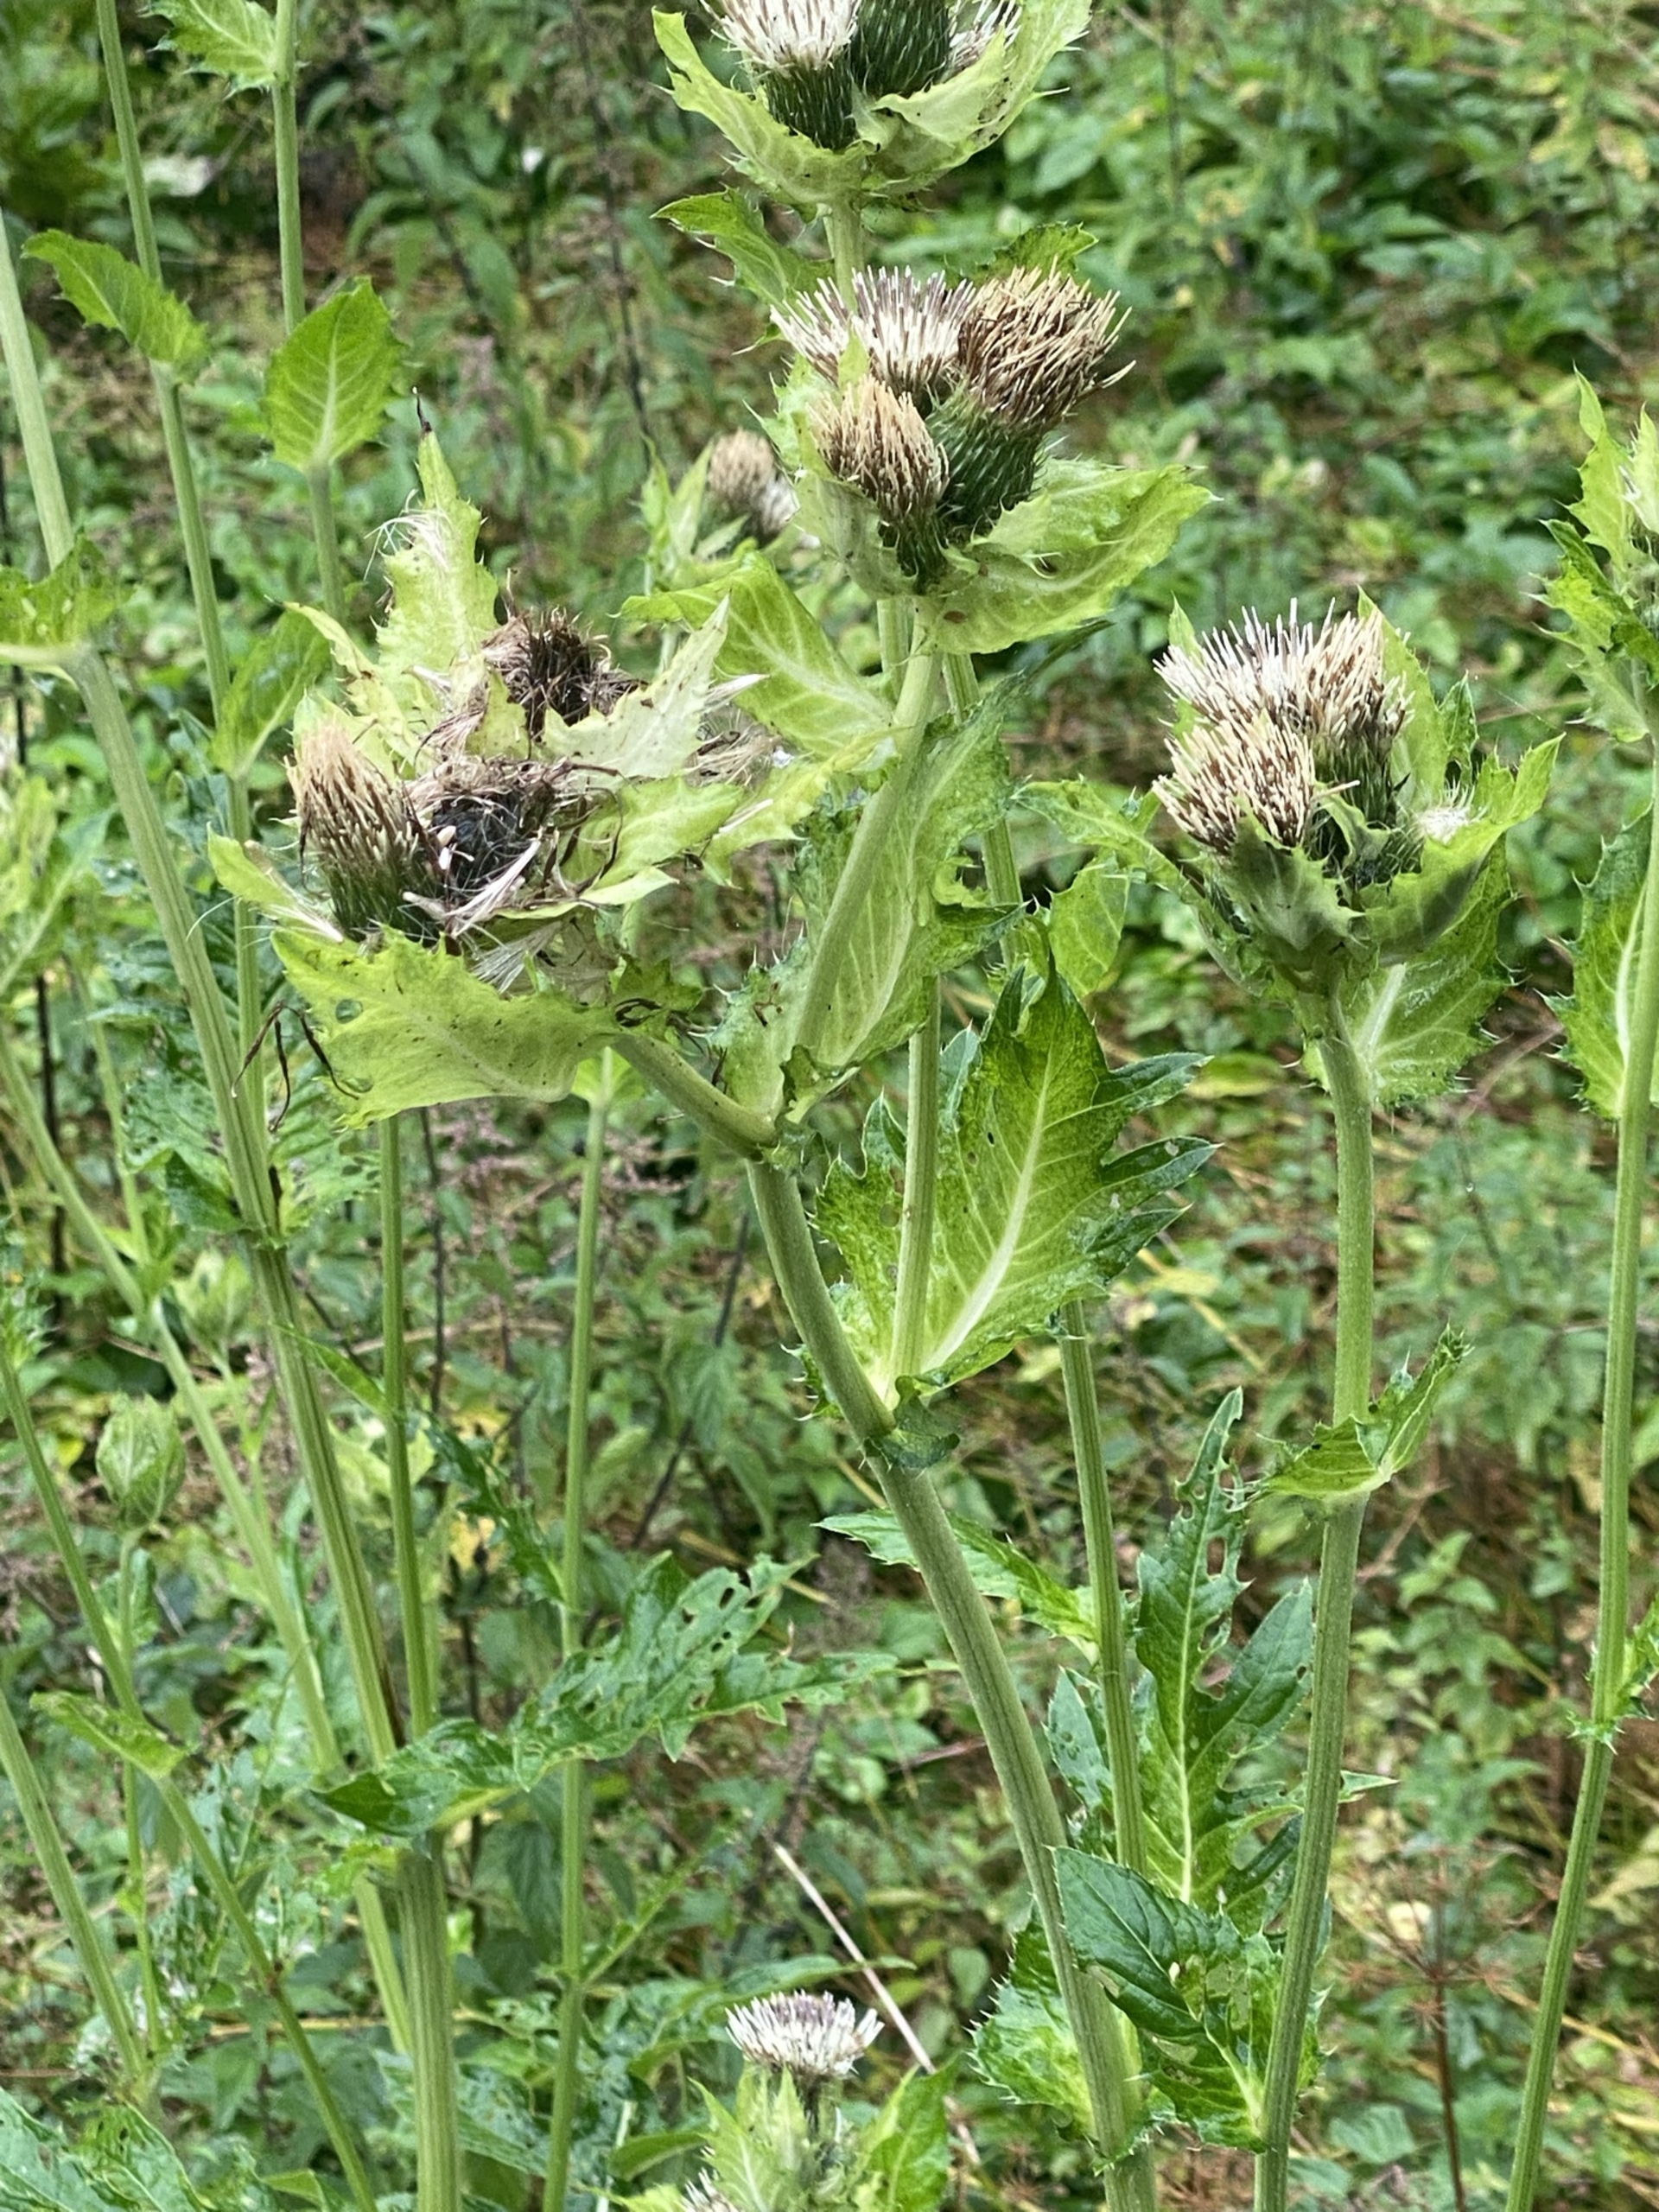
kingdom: Plantae
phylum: Tracheophyta
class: Magnoliopsida
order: Asterales
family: Asteraceae
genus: Cirsium
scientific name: Cirsium oleraceum
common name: Kål-tidsel
